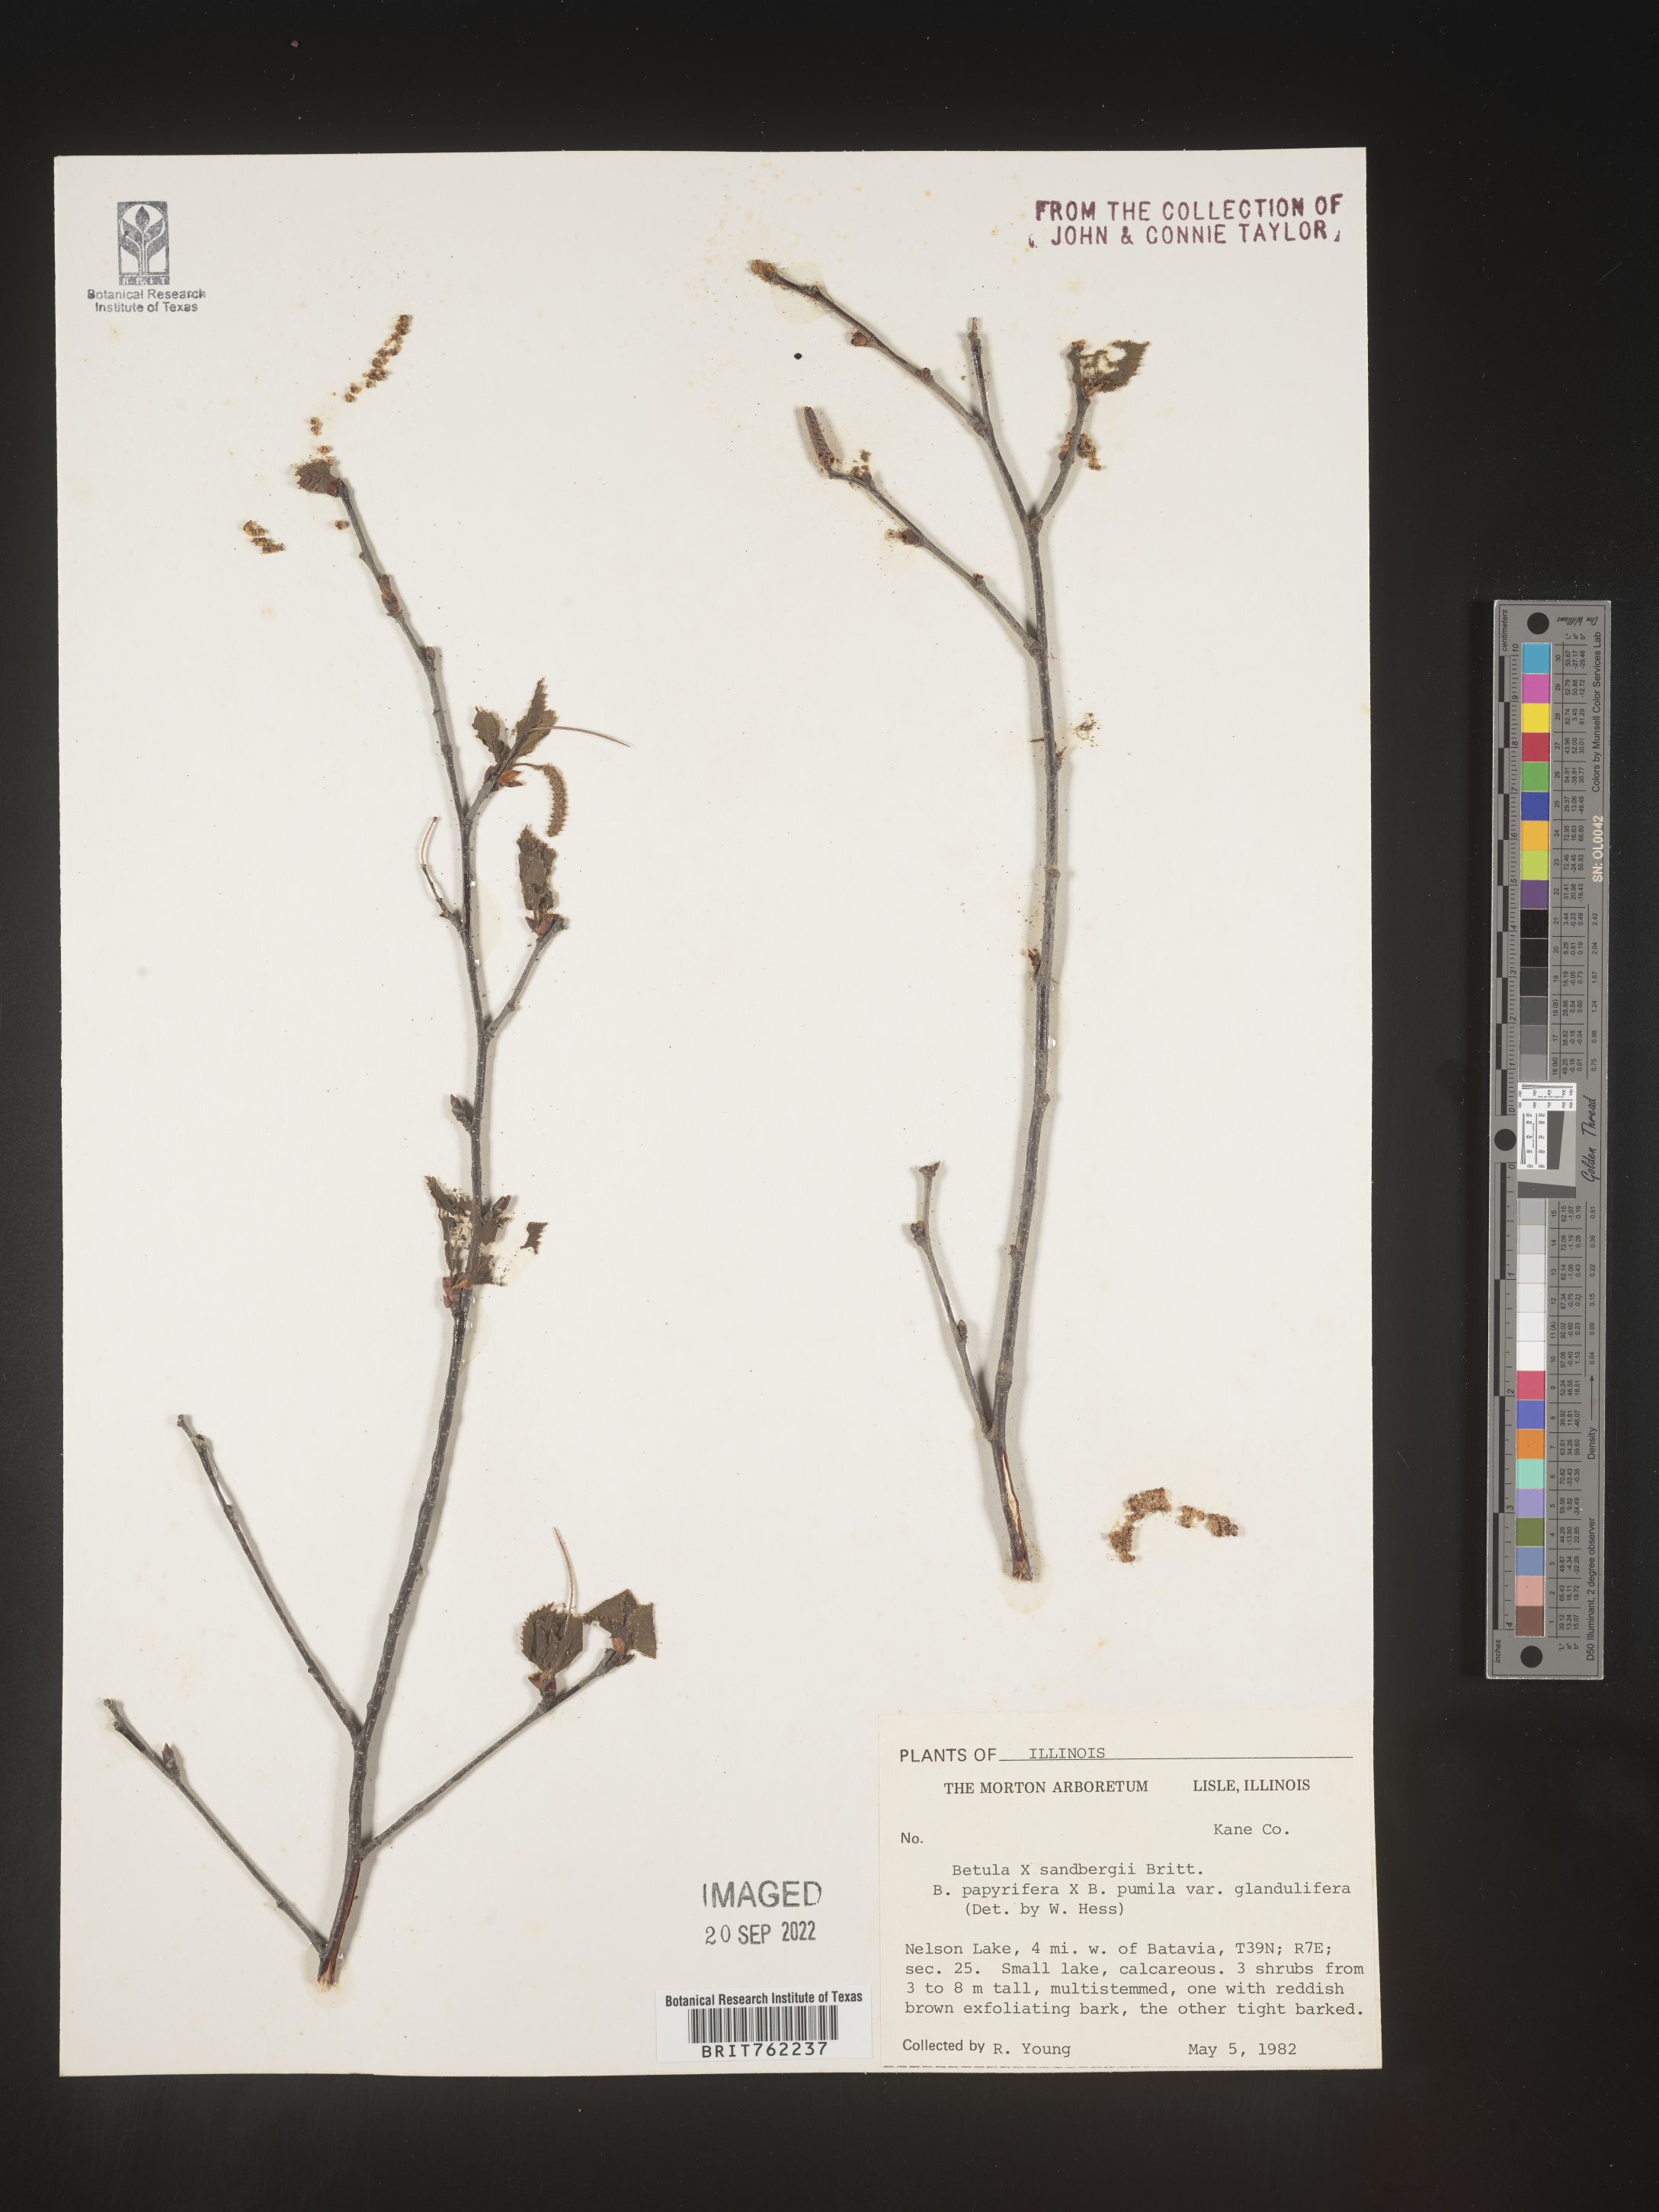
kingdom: Plantae
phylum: Tracheophyta
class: Magnoliopsida
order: Fagales
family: Betulaceae
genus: Betula
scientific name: Betula
